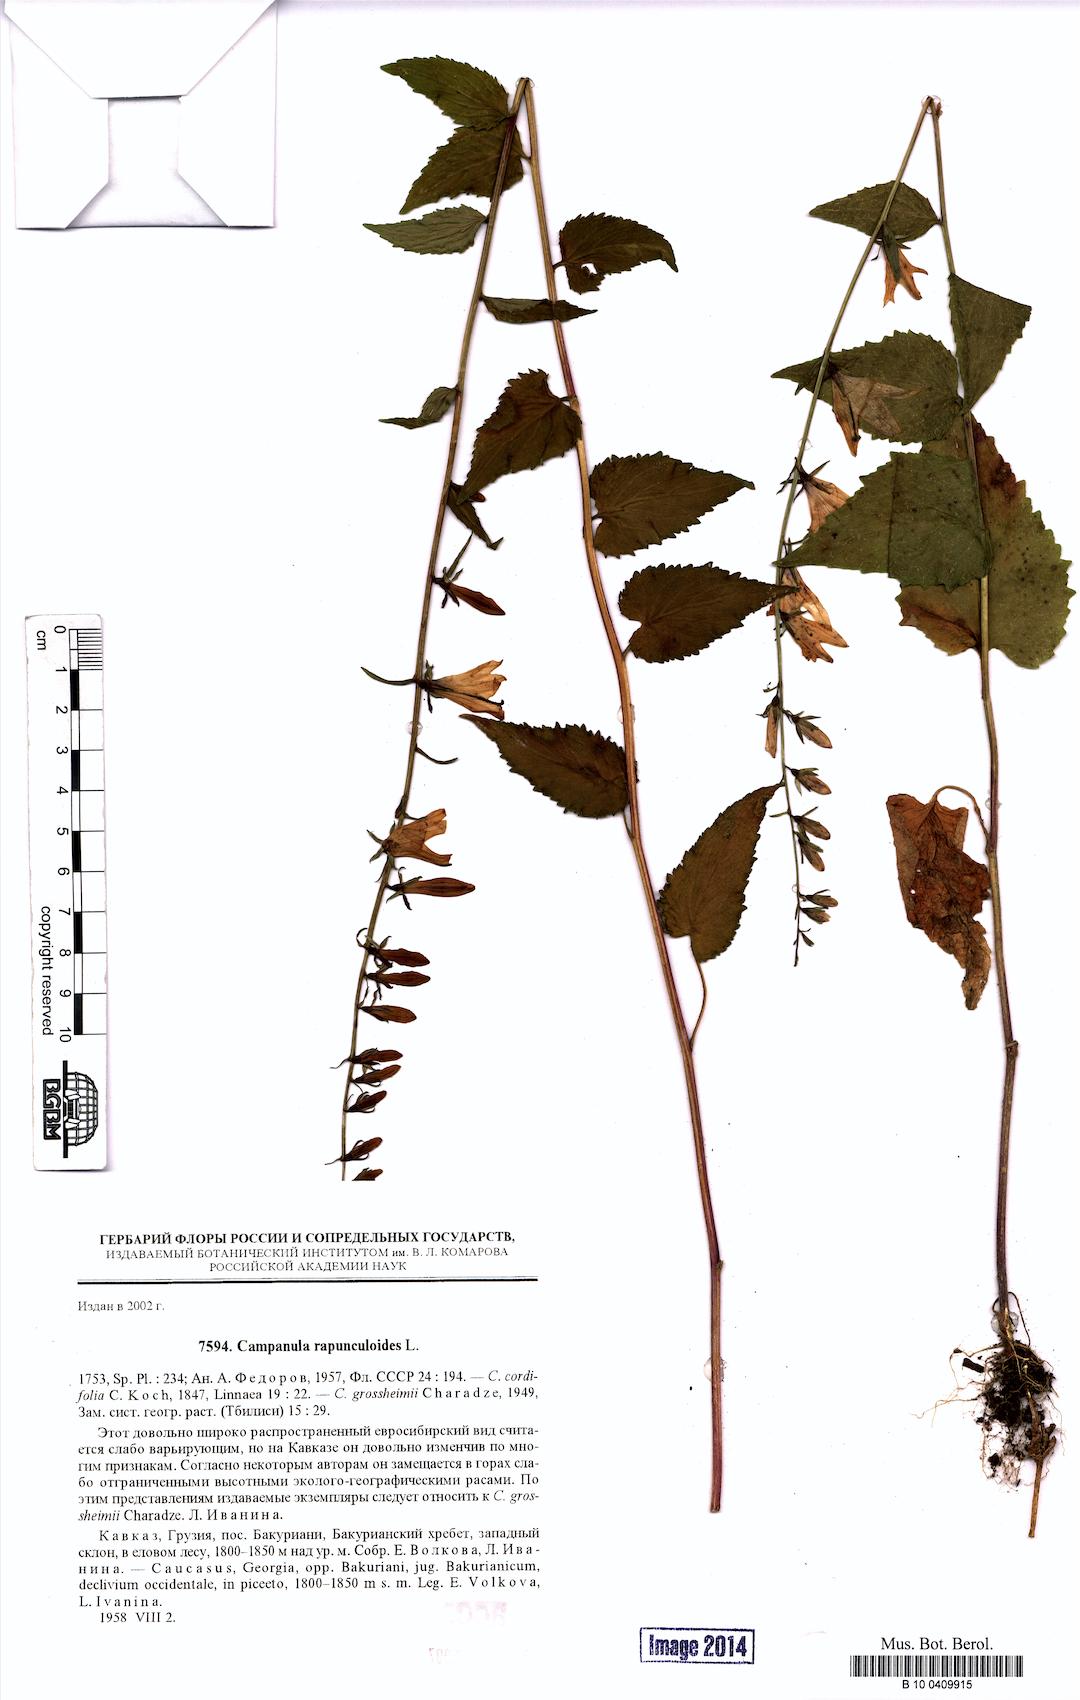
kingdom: Plantae
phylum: Tracheophyta
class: Magnoliopsida
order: Asterales
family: Campanulaceae
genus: Campanula
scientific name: Campanula rapunculoides
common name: Creeping bellflower
